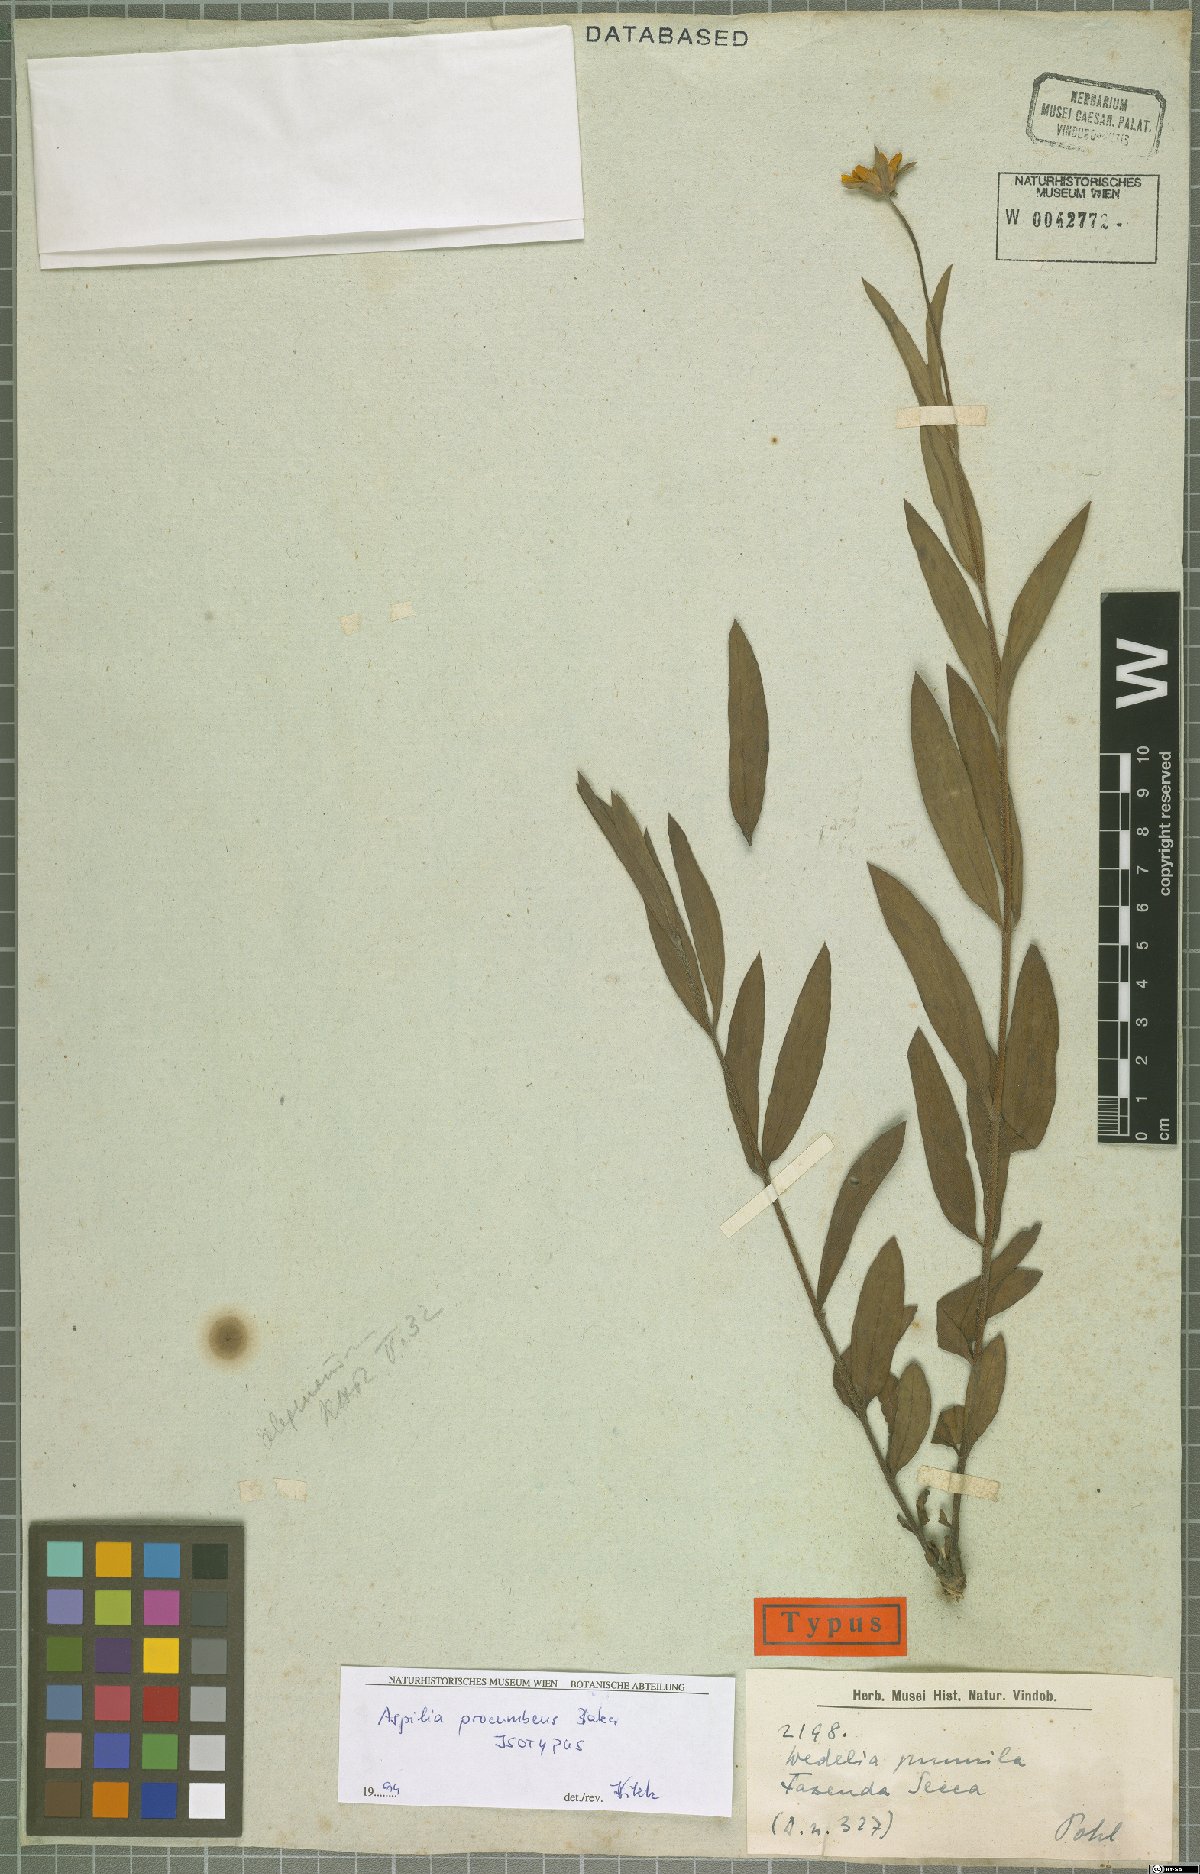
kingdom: Plantae
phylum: Tracheophyta
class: Magnoliopsida
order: Asterales
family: Asteraceae
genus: Wedelia
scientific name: Wedelia procumbens
